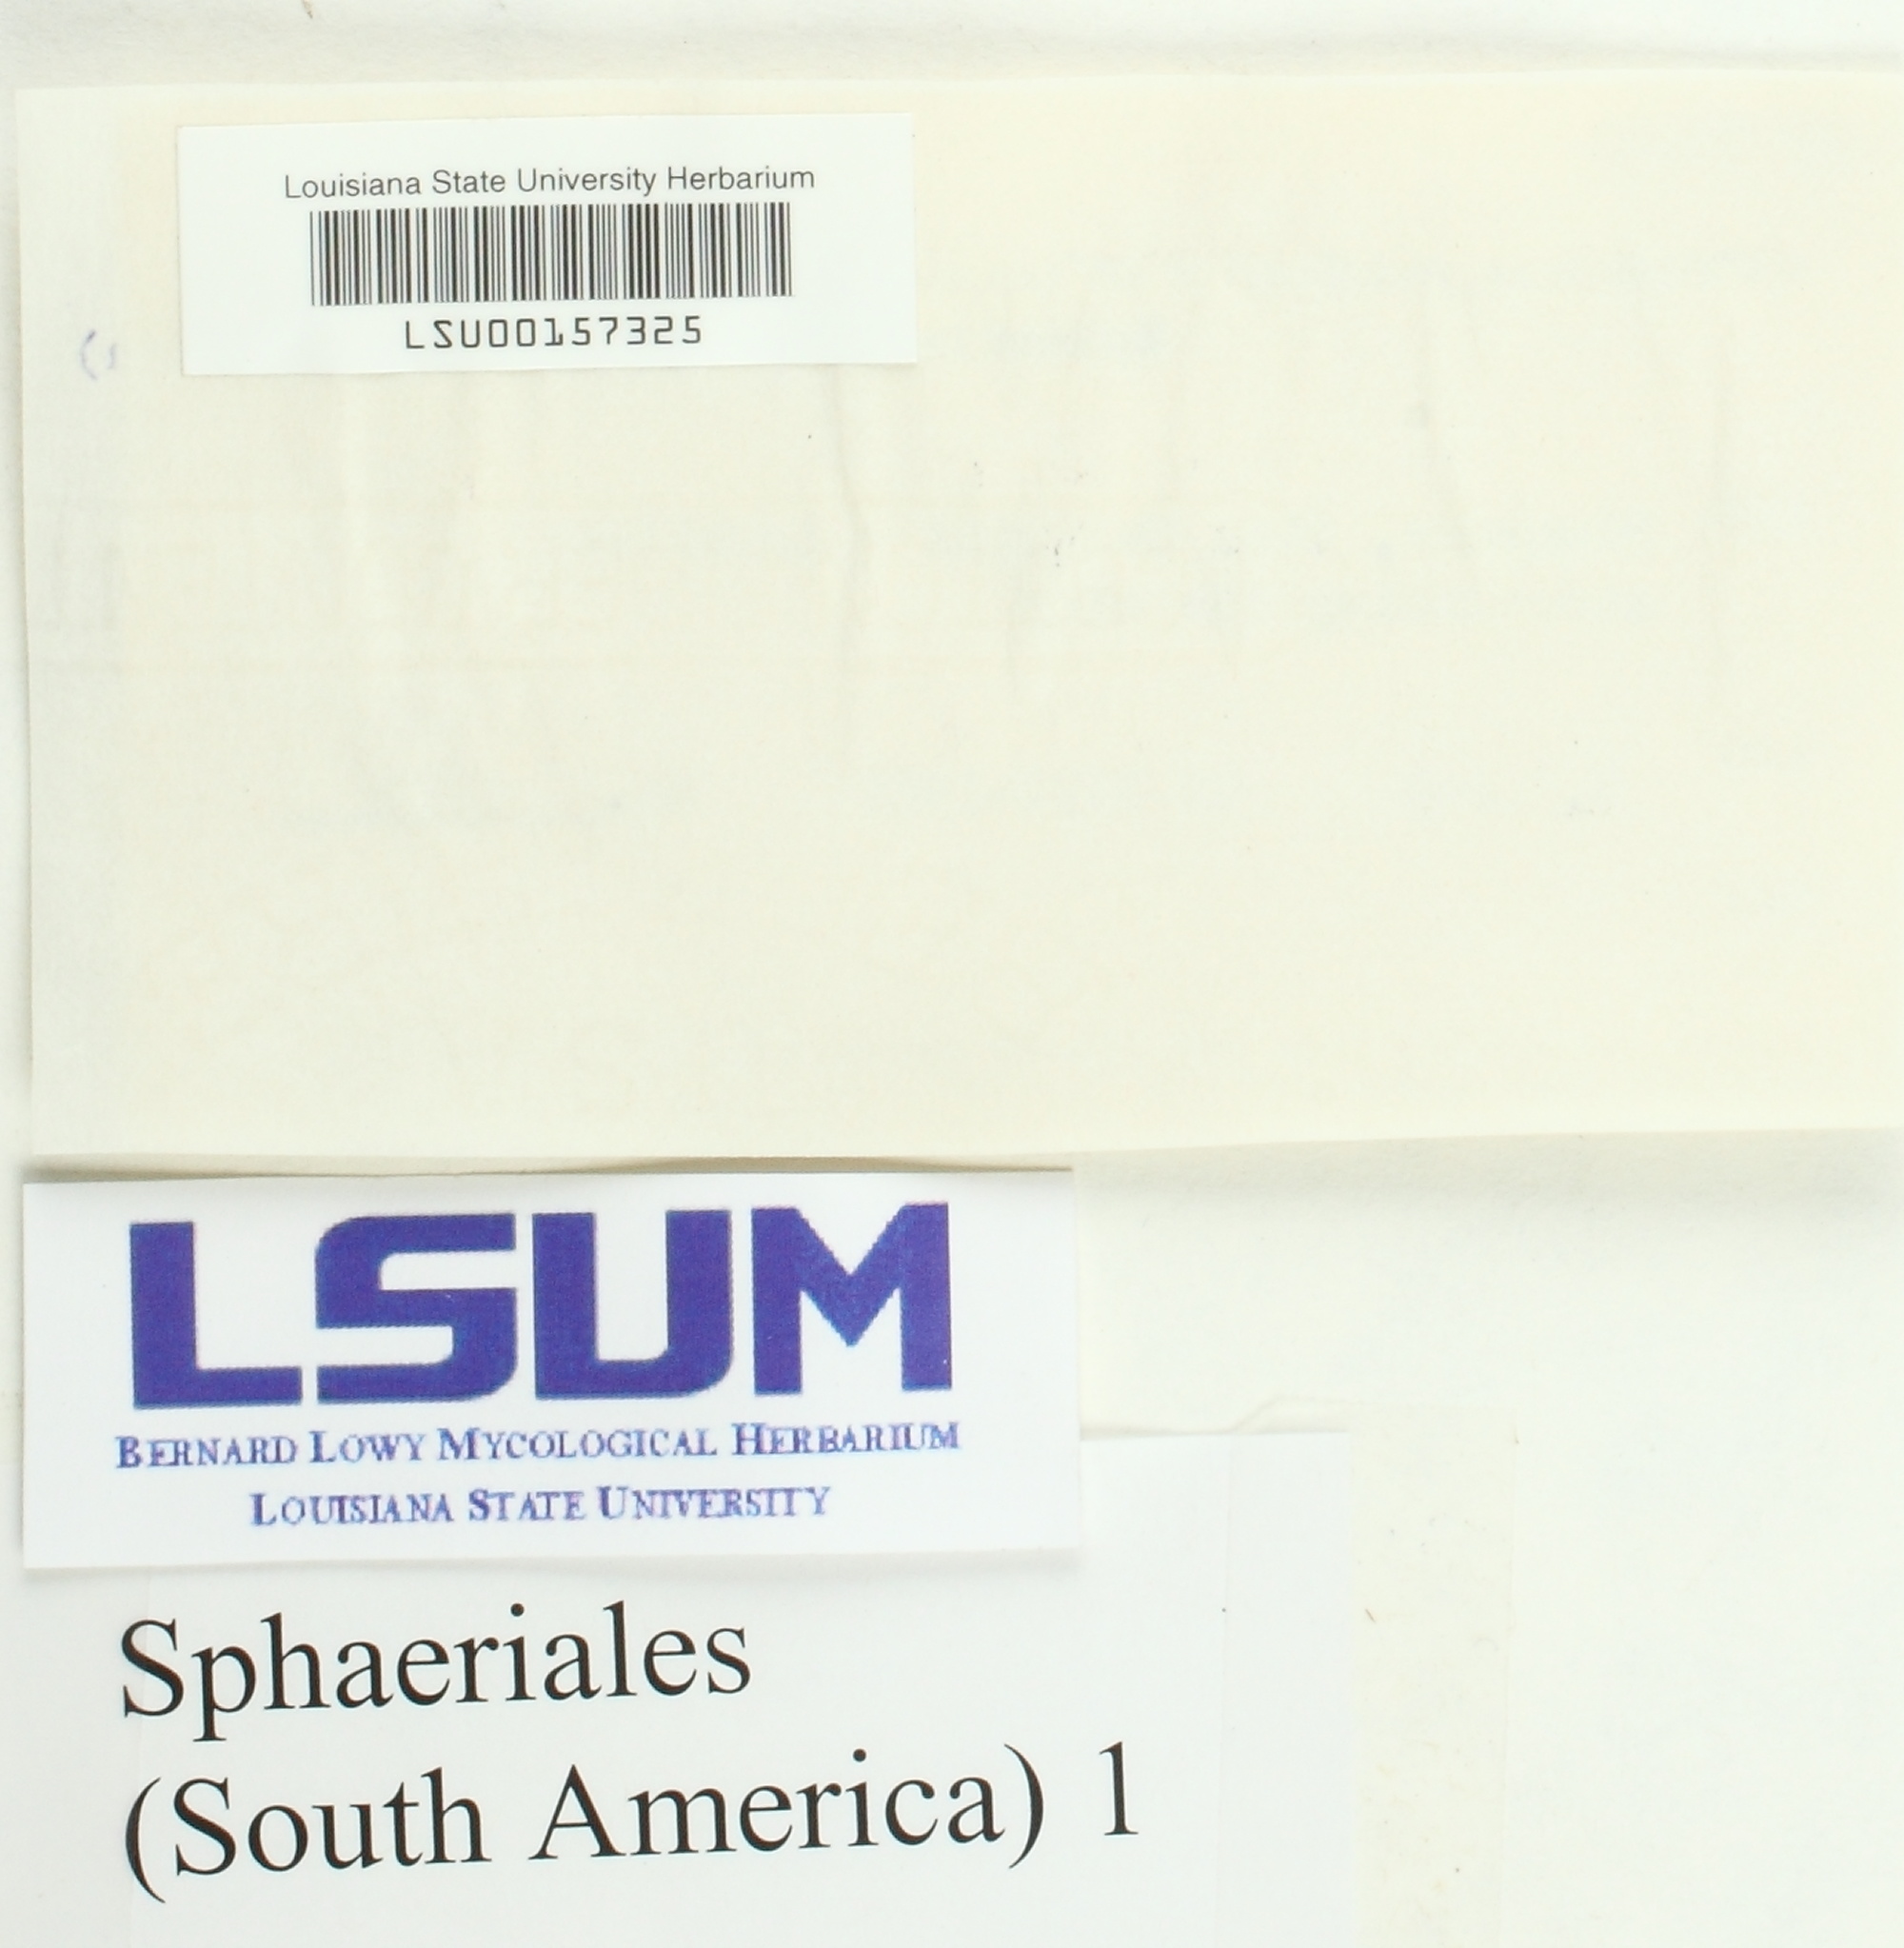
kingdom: Fungi
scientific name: Fungi
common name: Fungi
